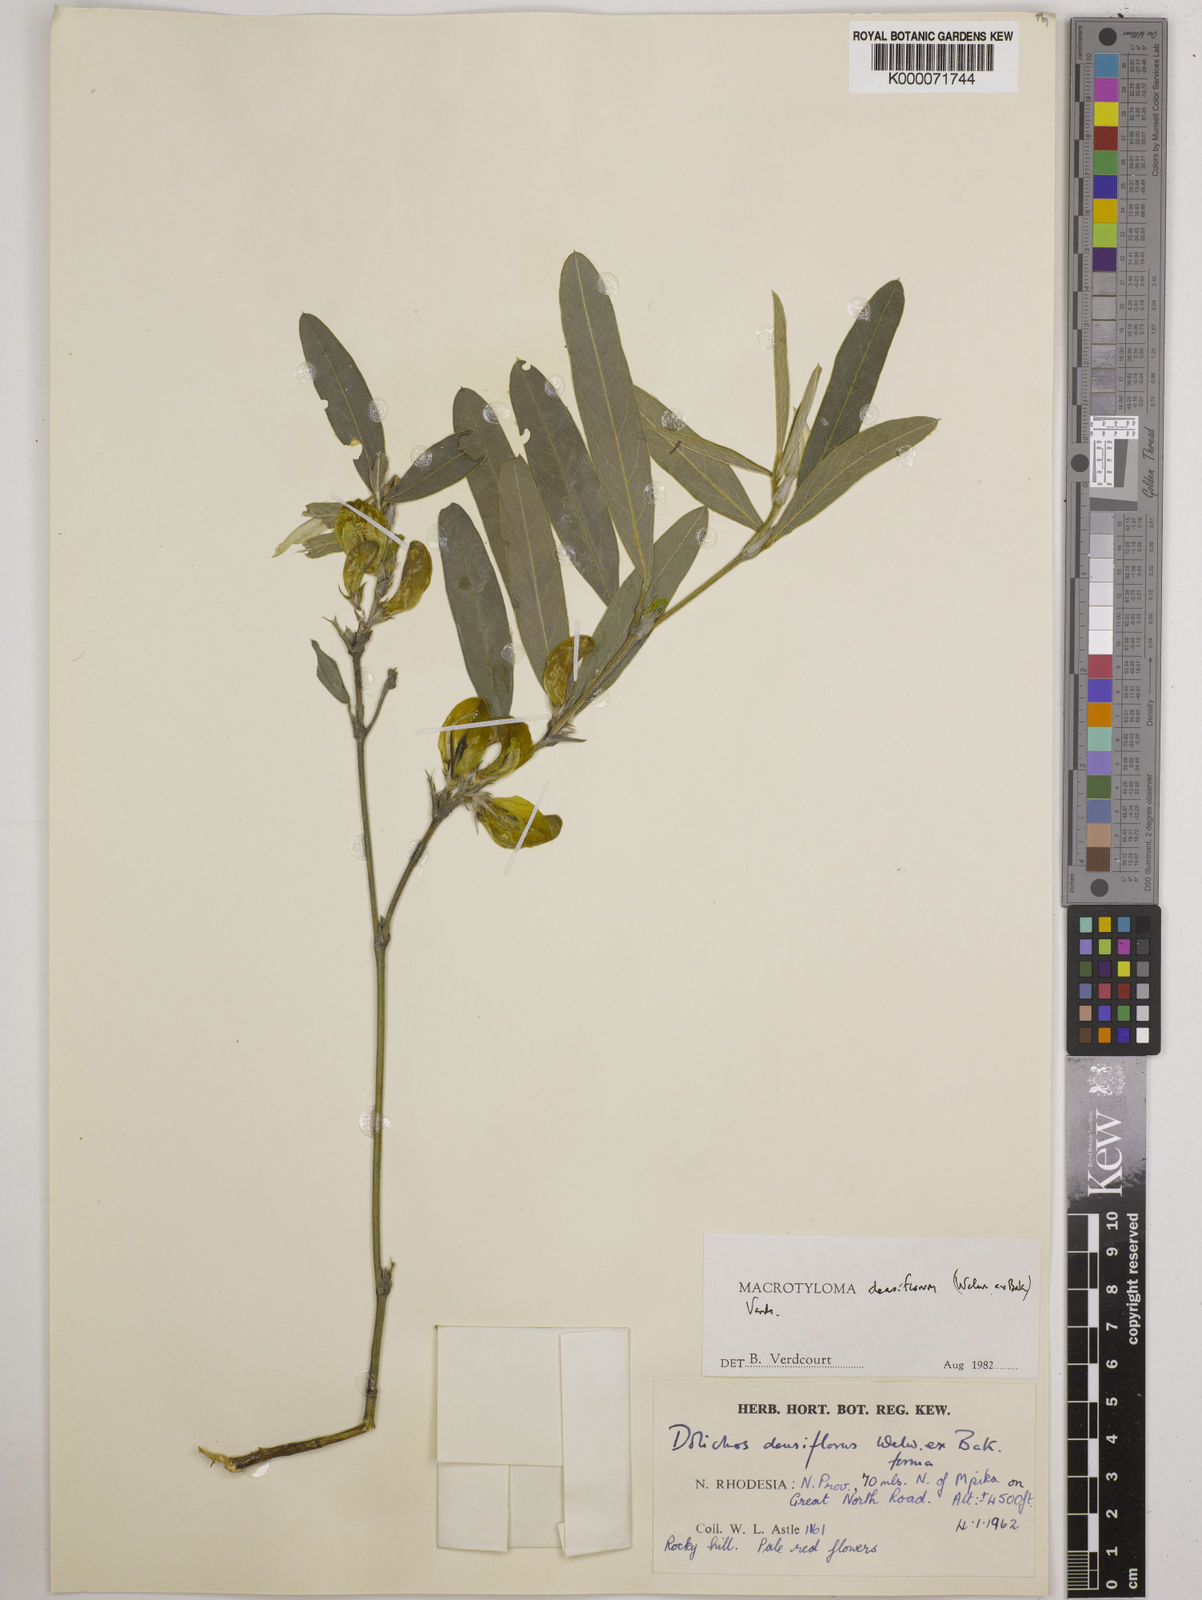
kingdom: Plantae
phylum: Tracheophyta
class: Magnoliopsida
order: Fabales
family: Fabaceae
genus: Macrotyloma
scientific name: Macrotyloma densiflorum
